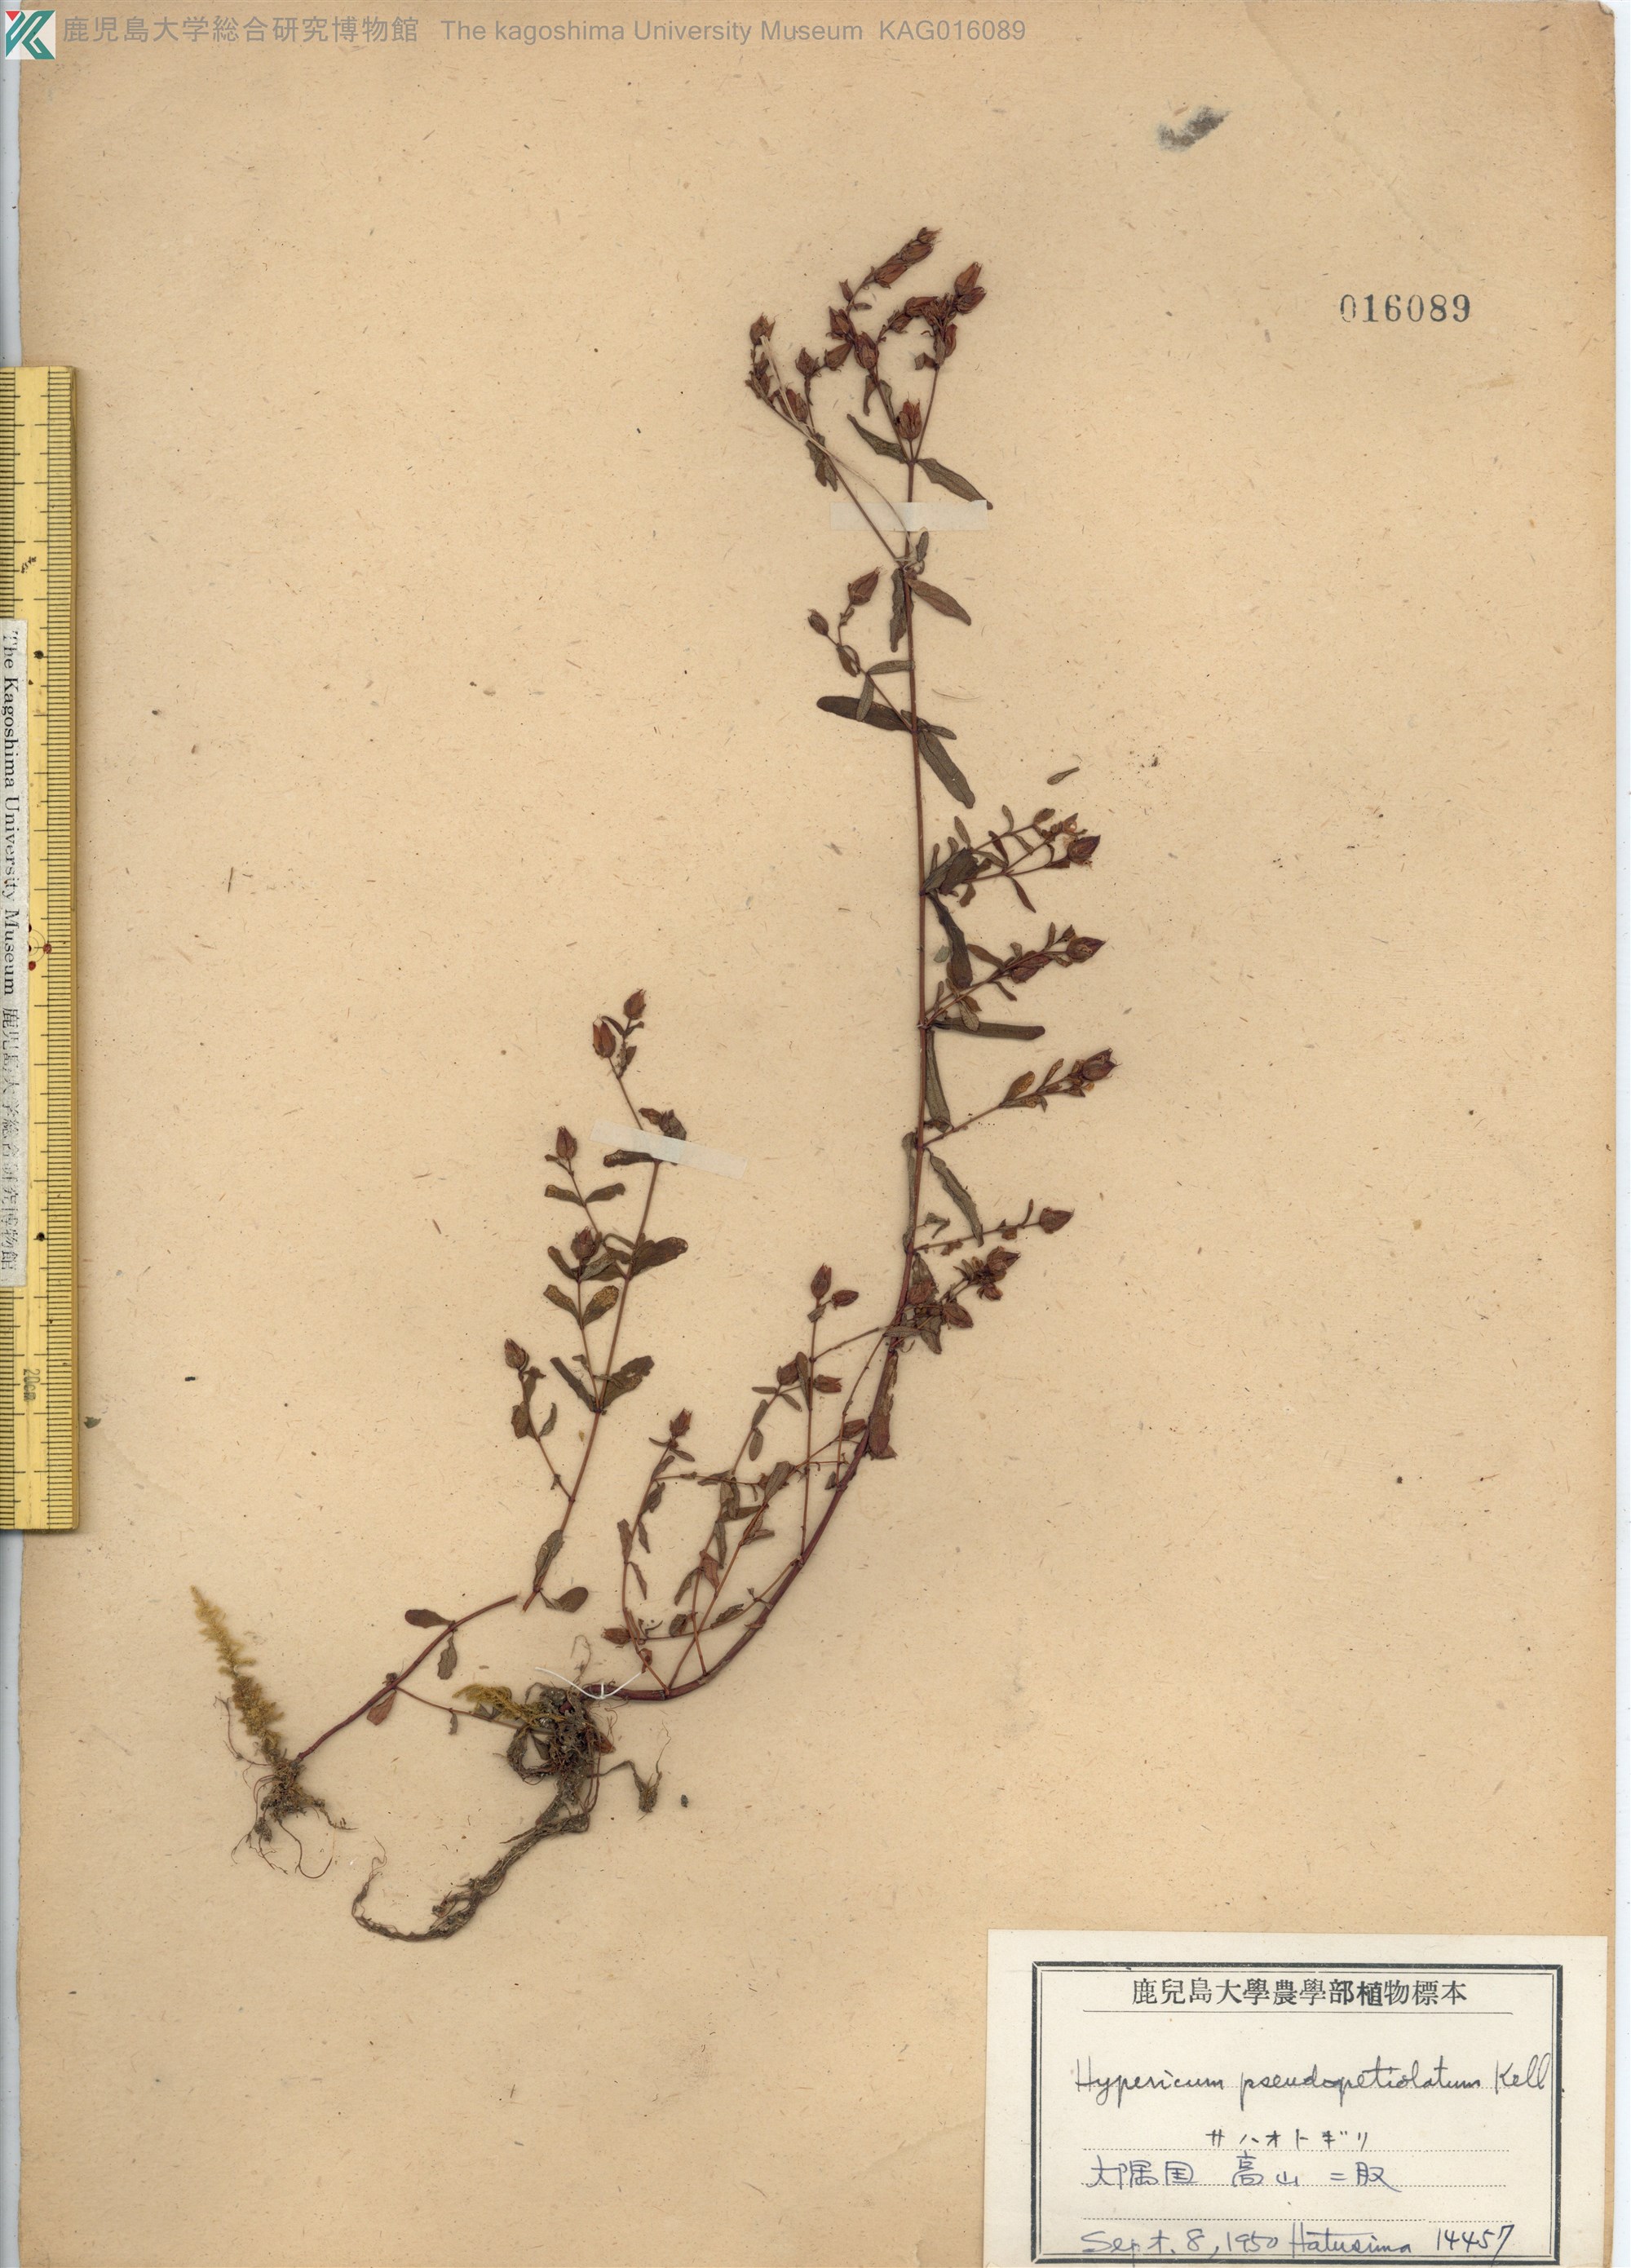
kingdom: Plantae
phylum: Tracheophyta
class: Magnoliopsida
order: Malpighiales
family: Hypericaceae
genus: Hypericum
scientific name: Hypericum pseudopetiolatum
